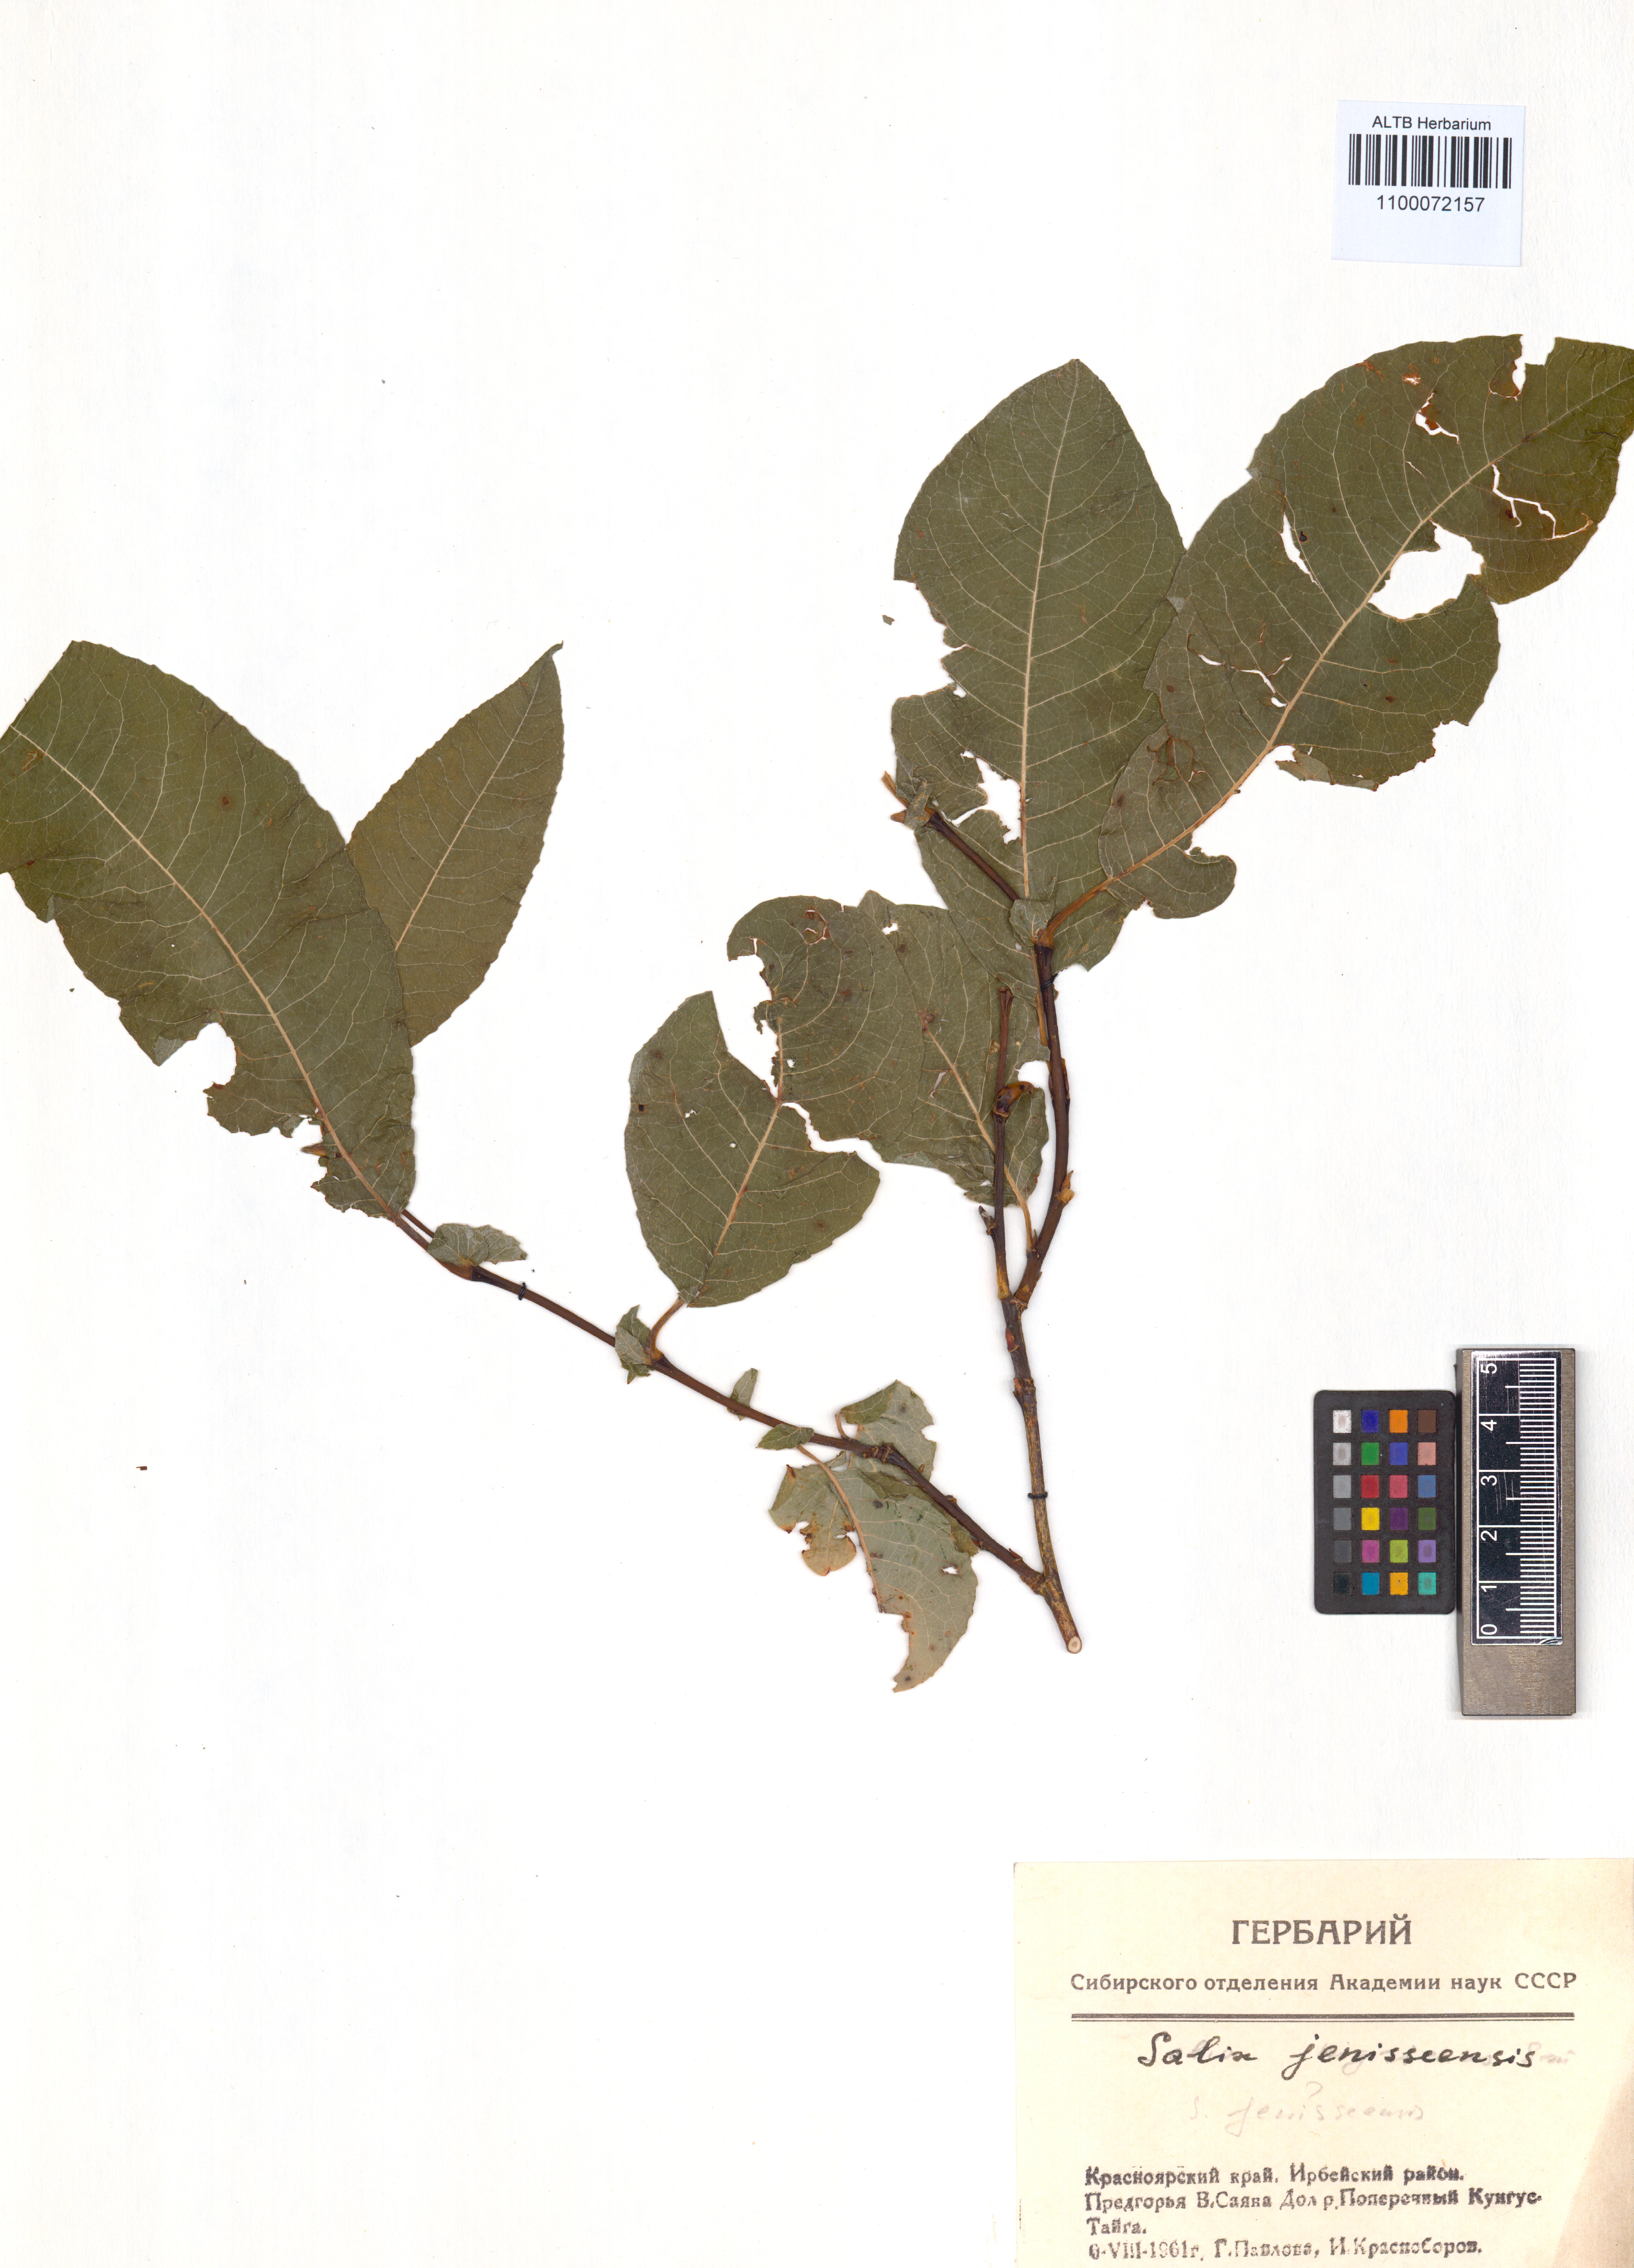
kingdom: Plantae
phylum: Tracheophyta
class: Magnoliopsida
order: Malpighiales
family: Salicaceae
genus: Salix
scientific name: Salix jenisseensis
